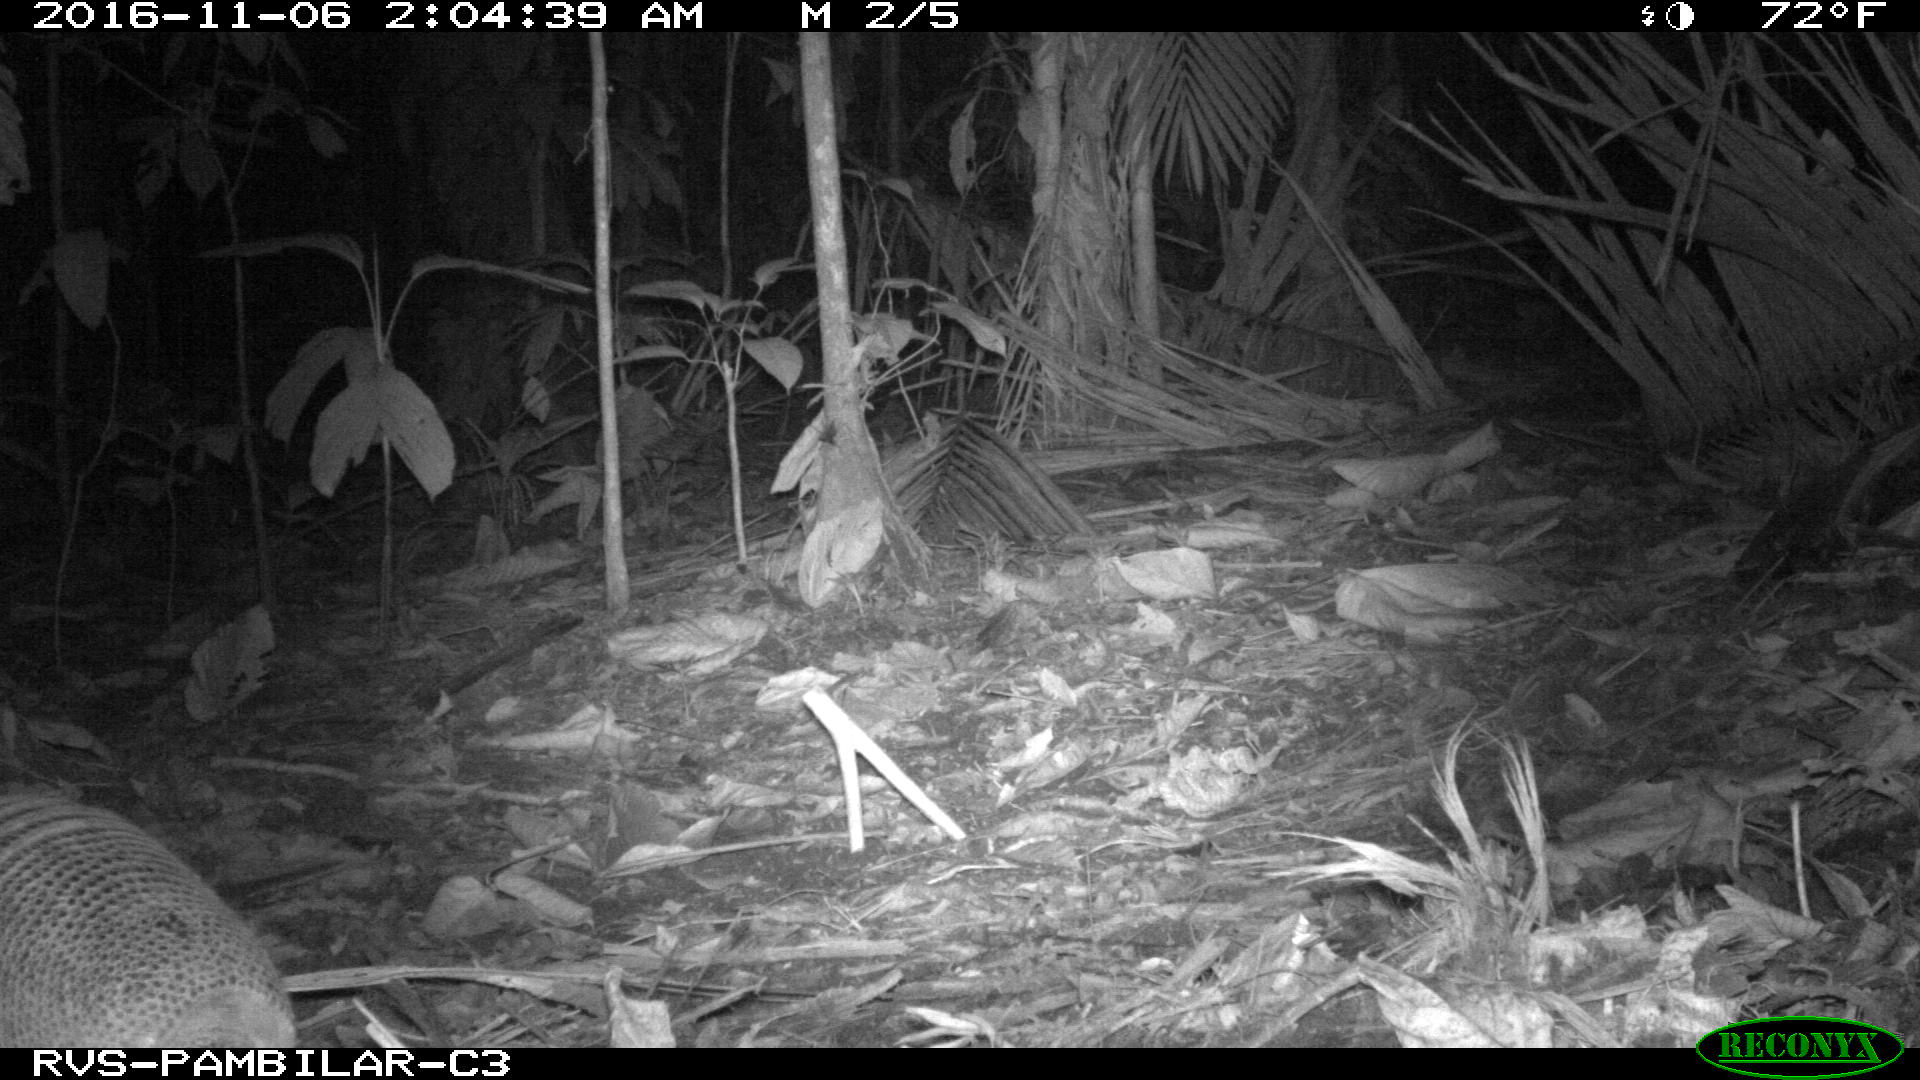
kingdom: Animalia
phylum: Chordata
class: Mammalia
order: Cingulata
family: Dasypodidae
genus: Dasypus
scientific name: Dasypus novemcinctus
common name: Nine-banded armadillo
